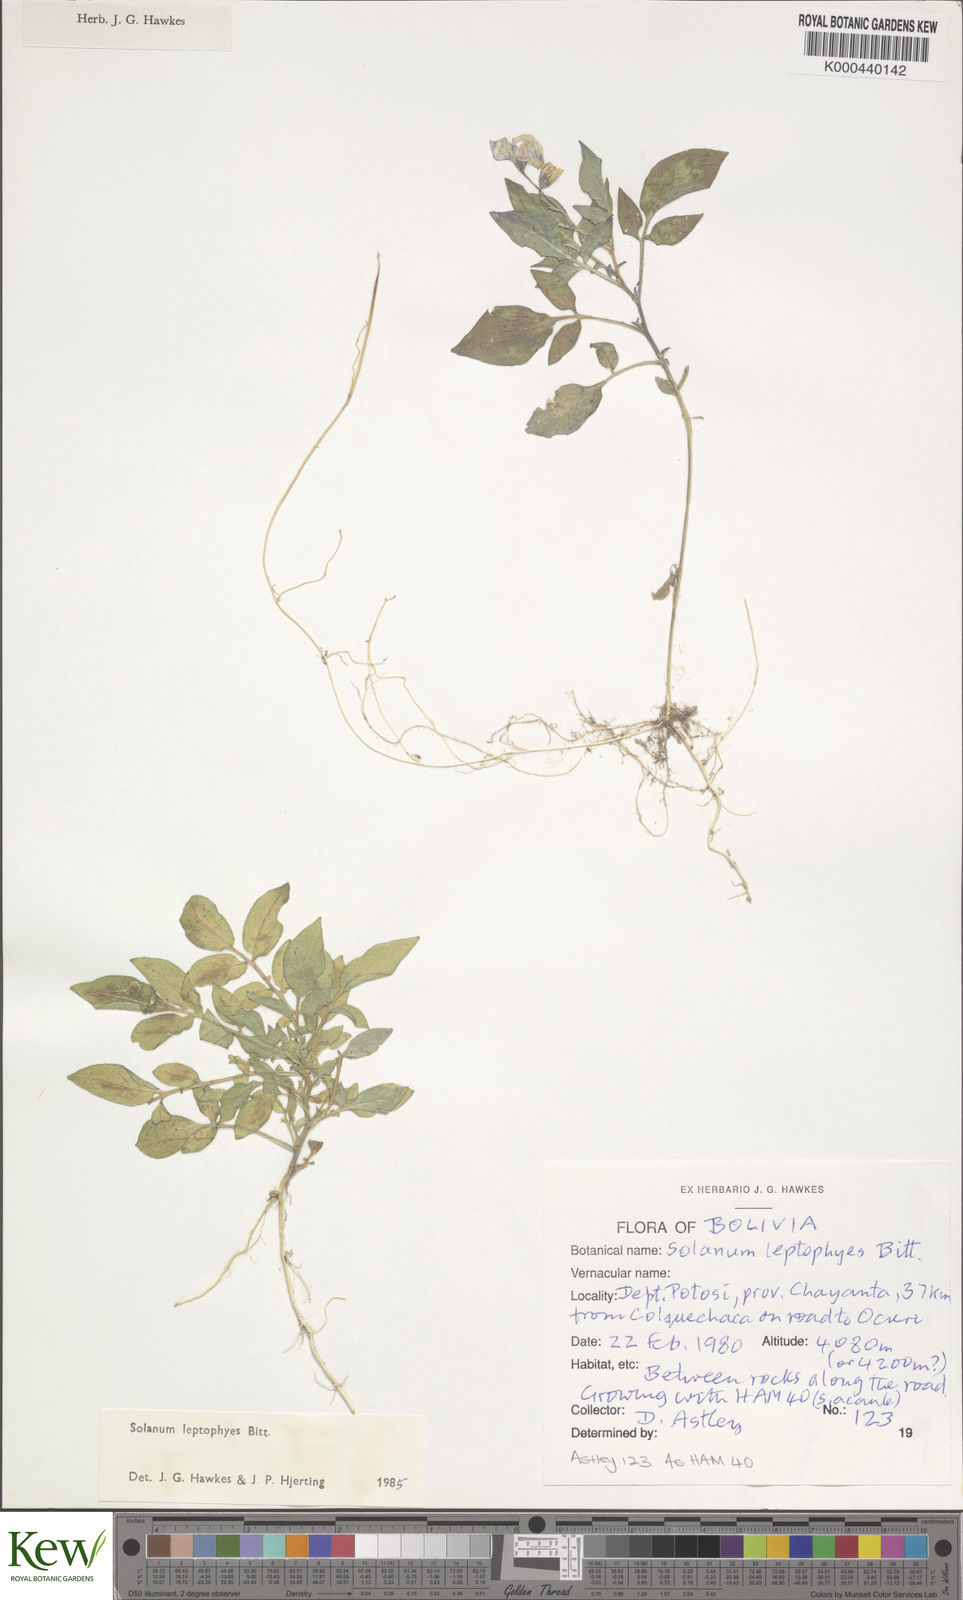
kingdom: Plantae
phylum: Tracheophyta
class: Magnoliopsida
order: Solanales
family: Solanaceae
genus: Solanum
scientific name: Solanum brevicaule
